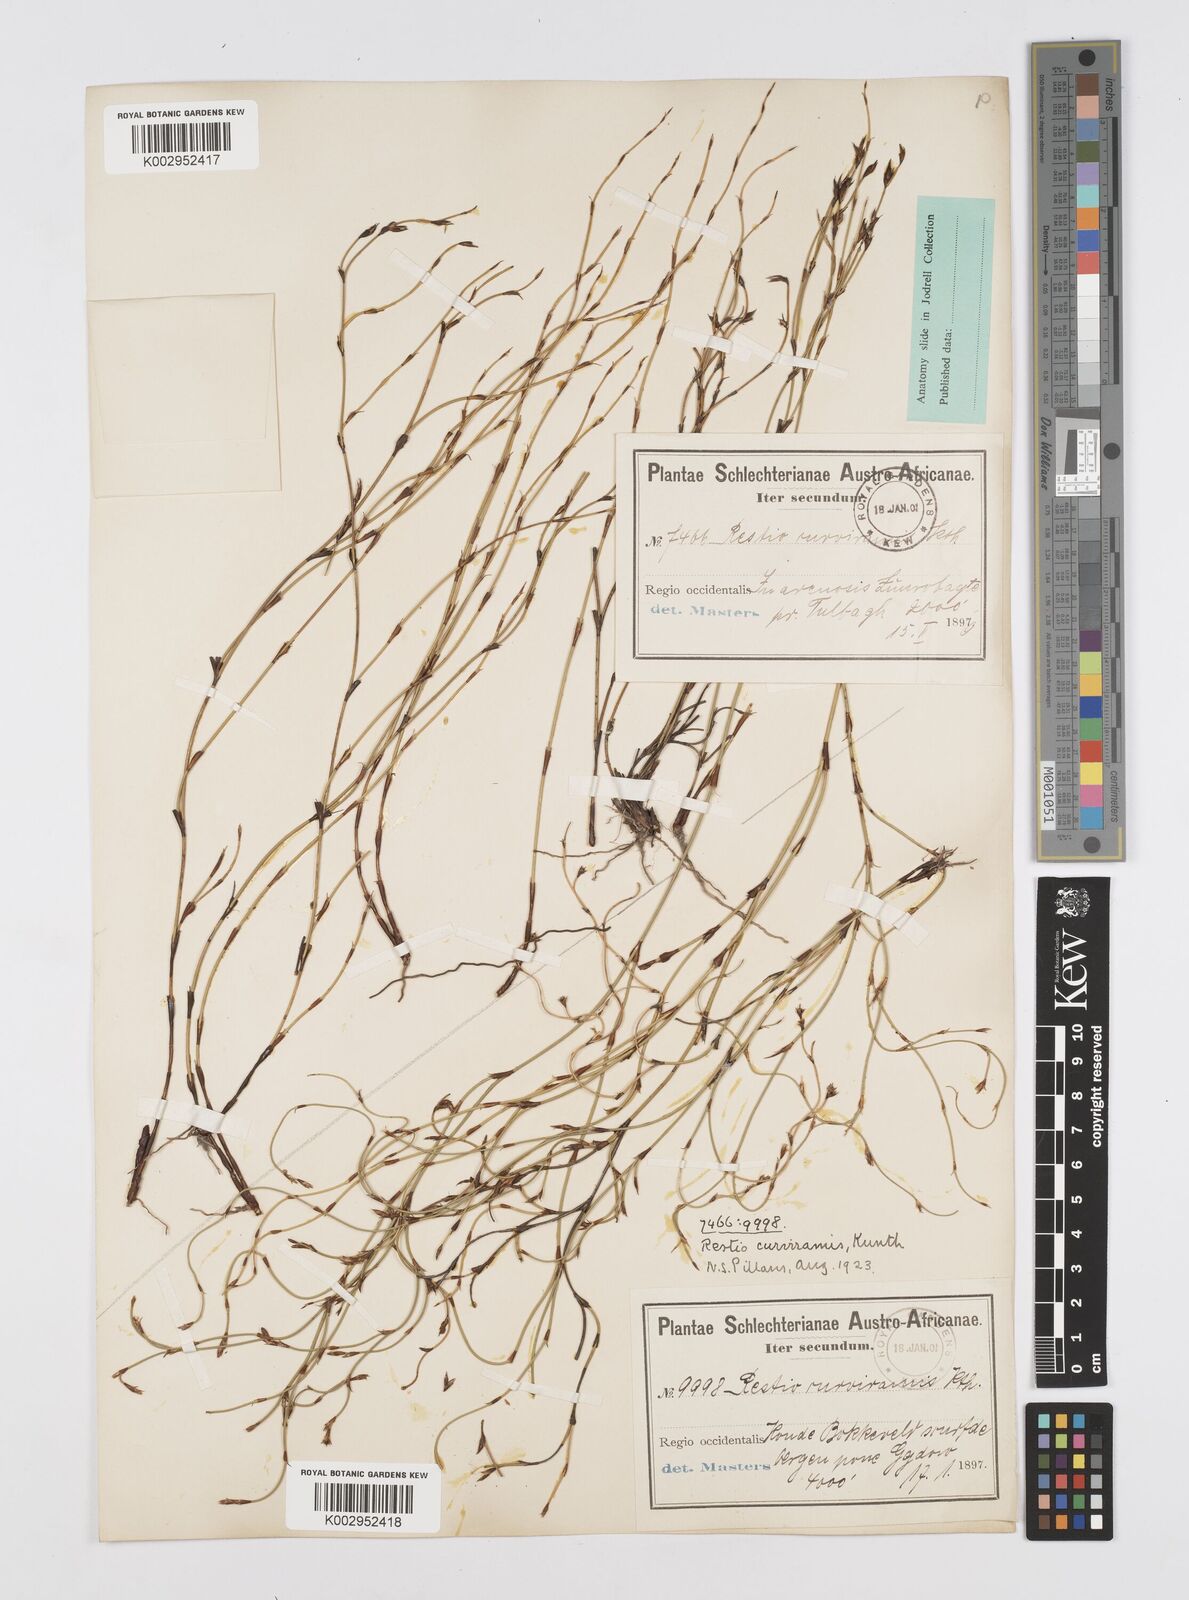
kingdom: Plantae
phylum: Tracheophyta
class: Liliopsida
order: Poales
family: Restionaceae
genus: Restio
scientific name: Restio curviramis
